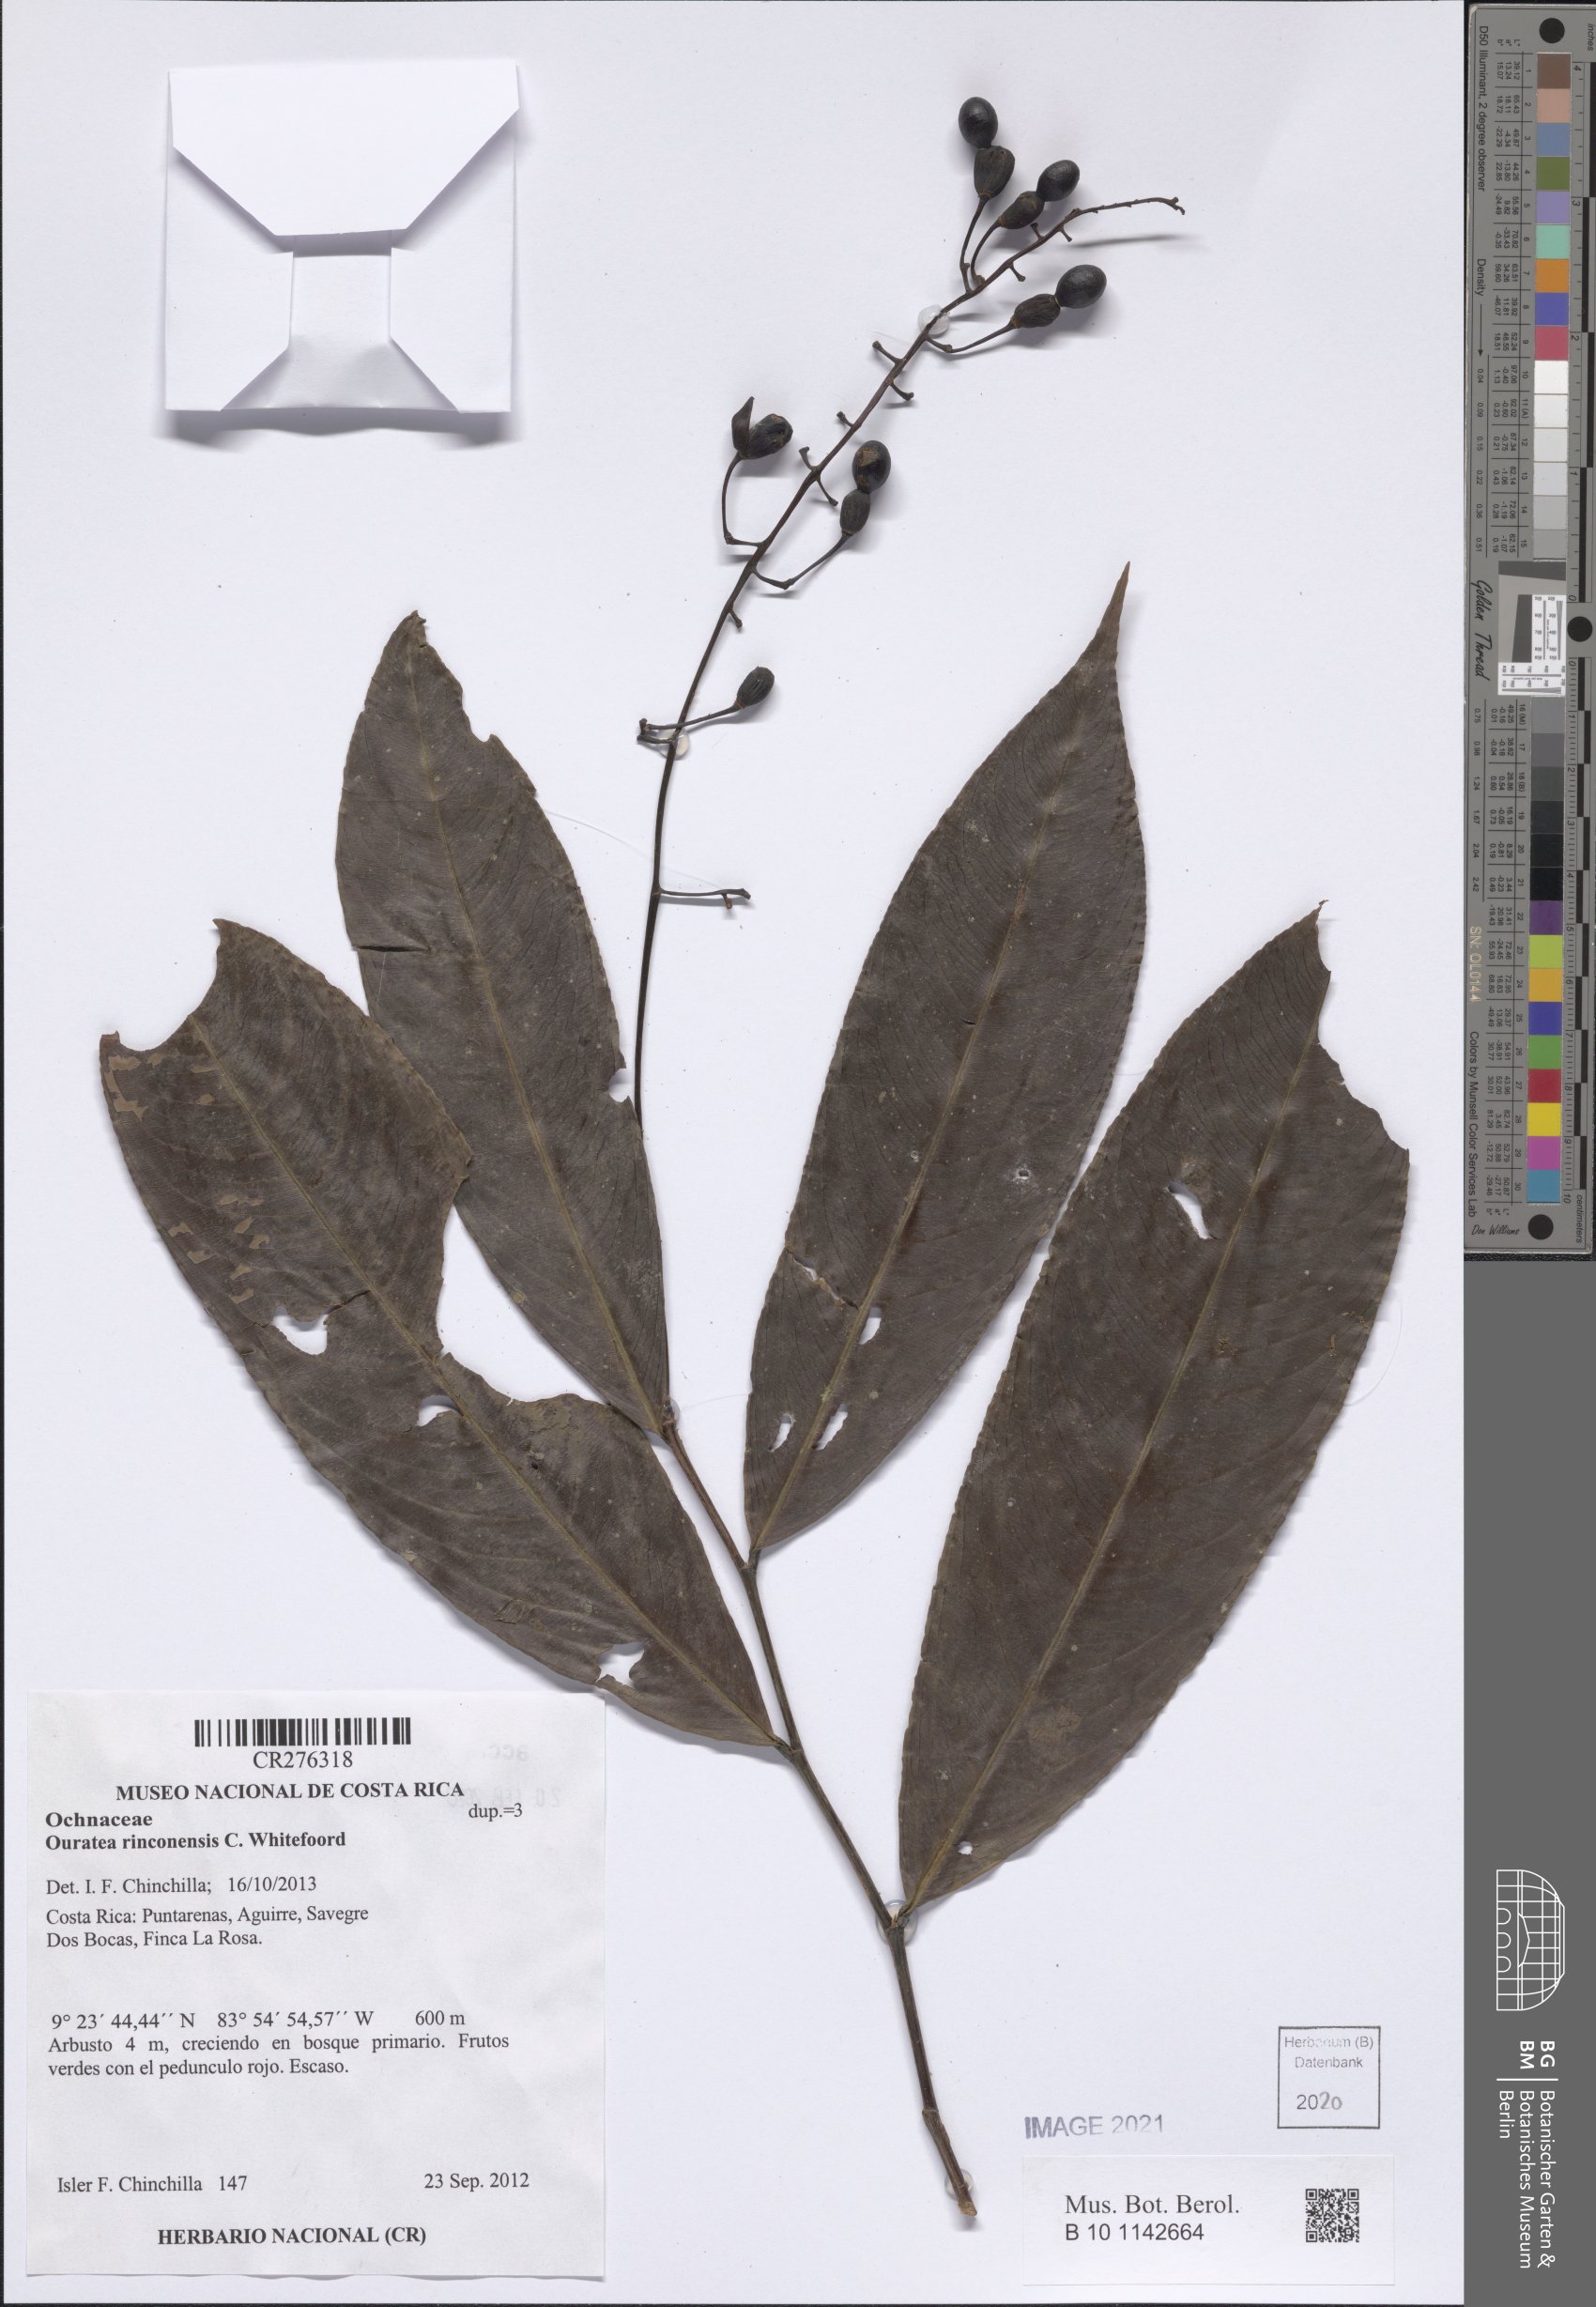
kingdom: Plantae
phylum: Tracheophyta
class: Magnoliopsida
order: Malpighiales
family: Ochnaceae
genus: Ouratea
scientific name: Ouratea rinconensis
